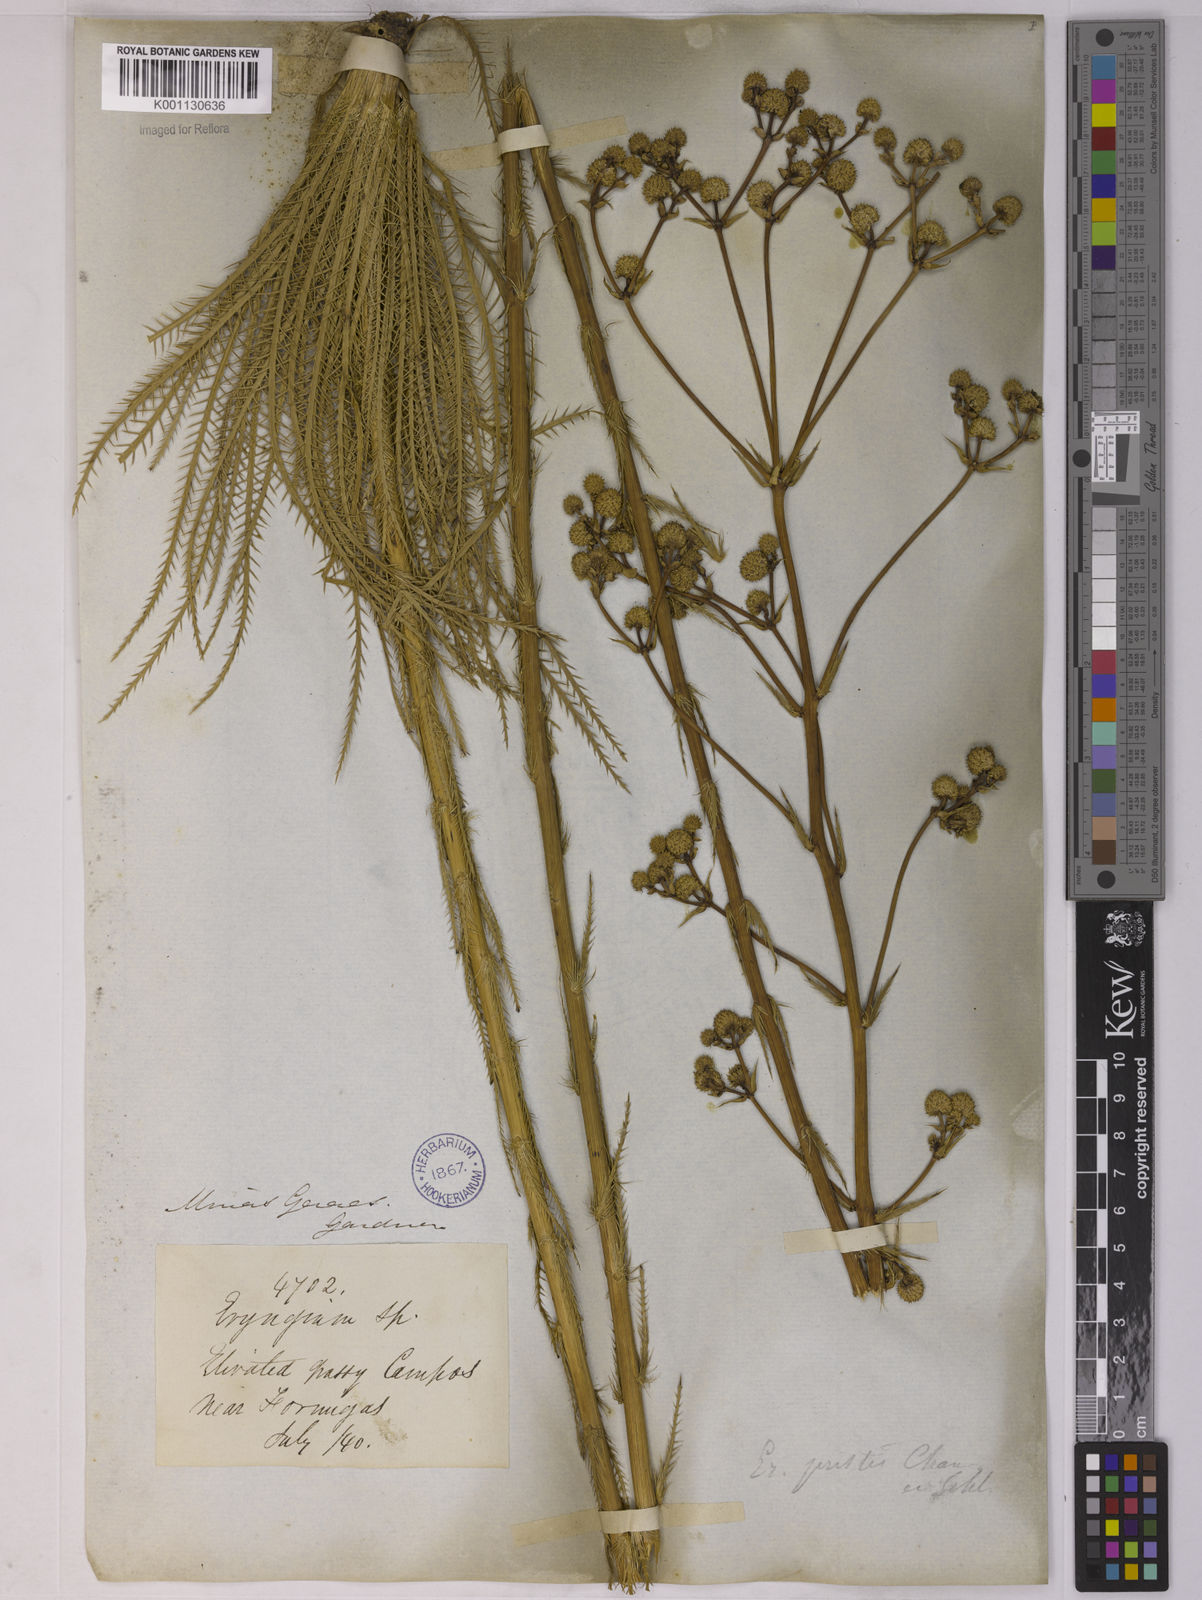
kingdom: Plantae
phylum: Tracheophyta
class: Magnoliopsida
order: Apiales
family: Apiaceae
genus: Eryngium
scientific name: Eryngium pristis
